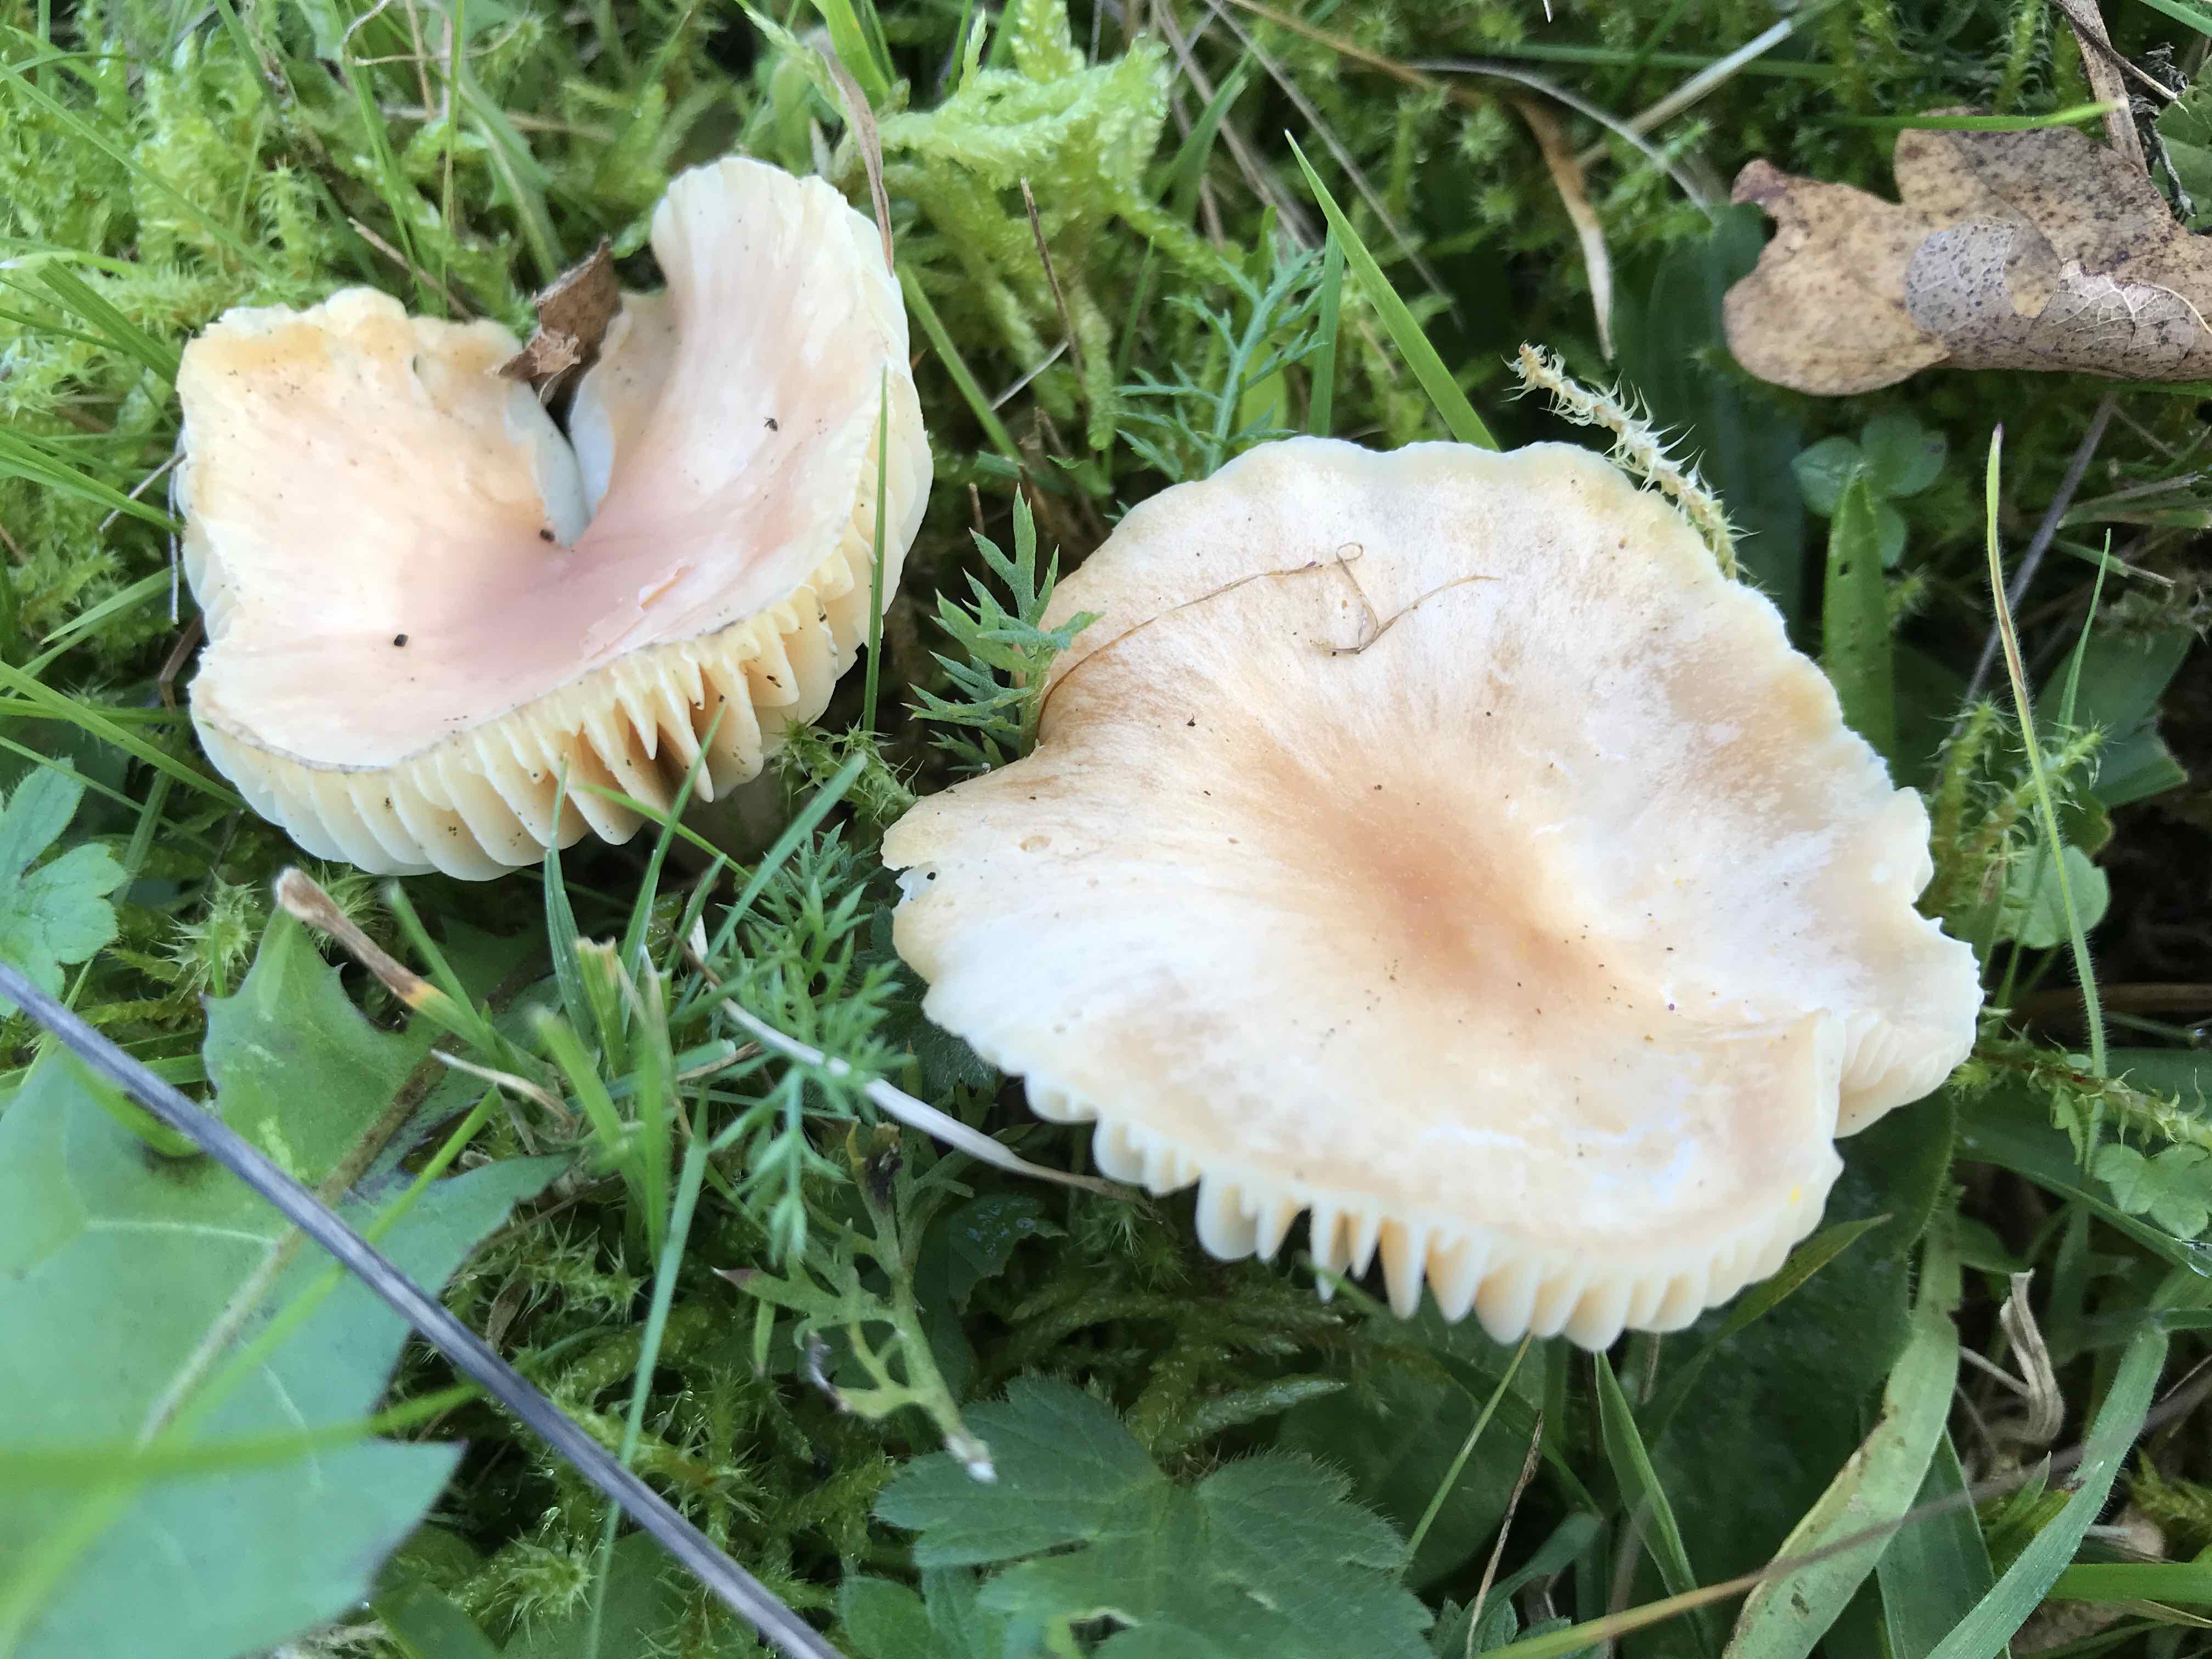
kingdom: Fungi
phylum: Basidiomycota
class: Agaricomycetes
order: Agaricales
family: Hygrophoraceae
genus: Cuphophyllus
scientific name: Cuphophyllus pratensis
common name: eng-vokshat
